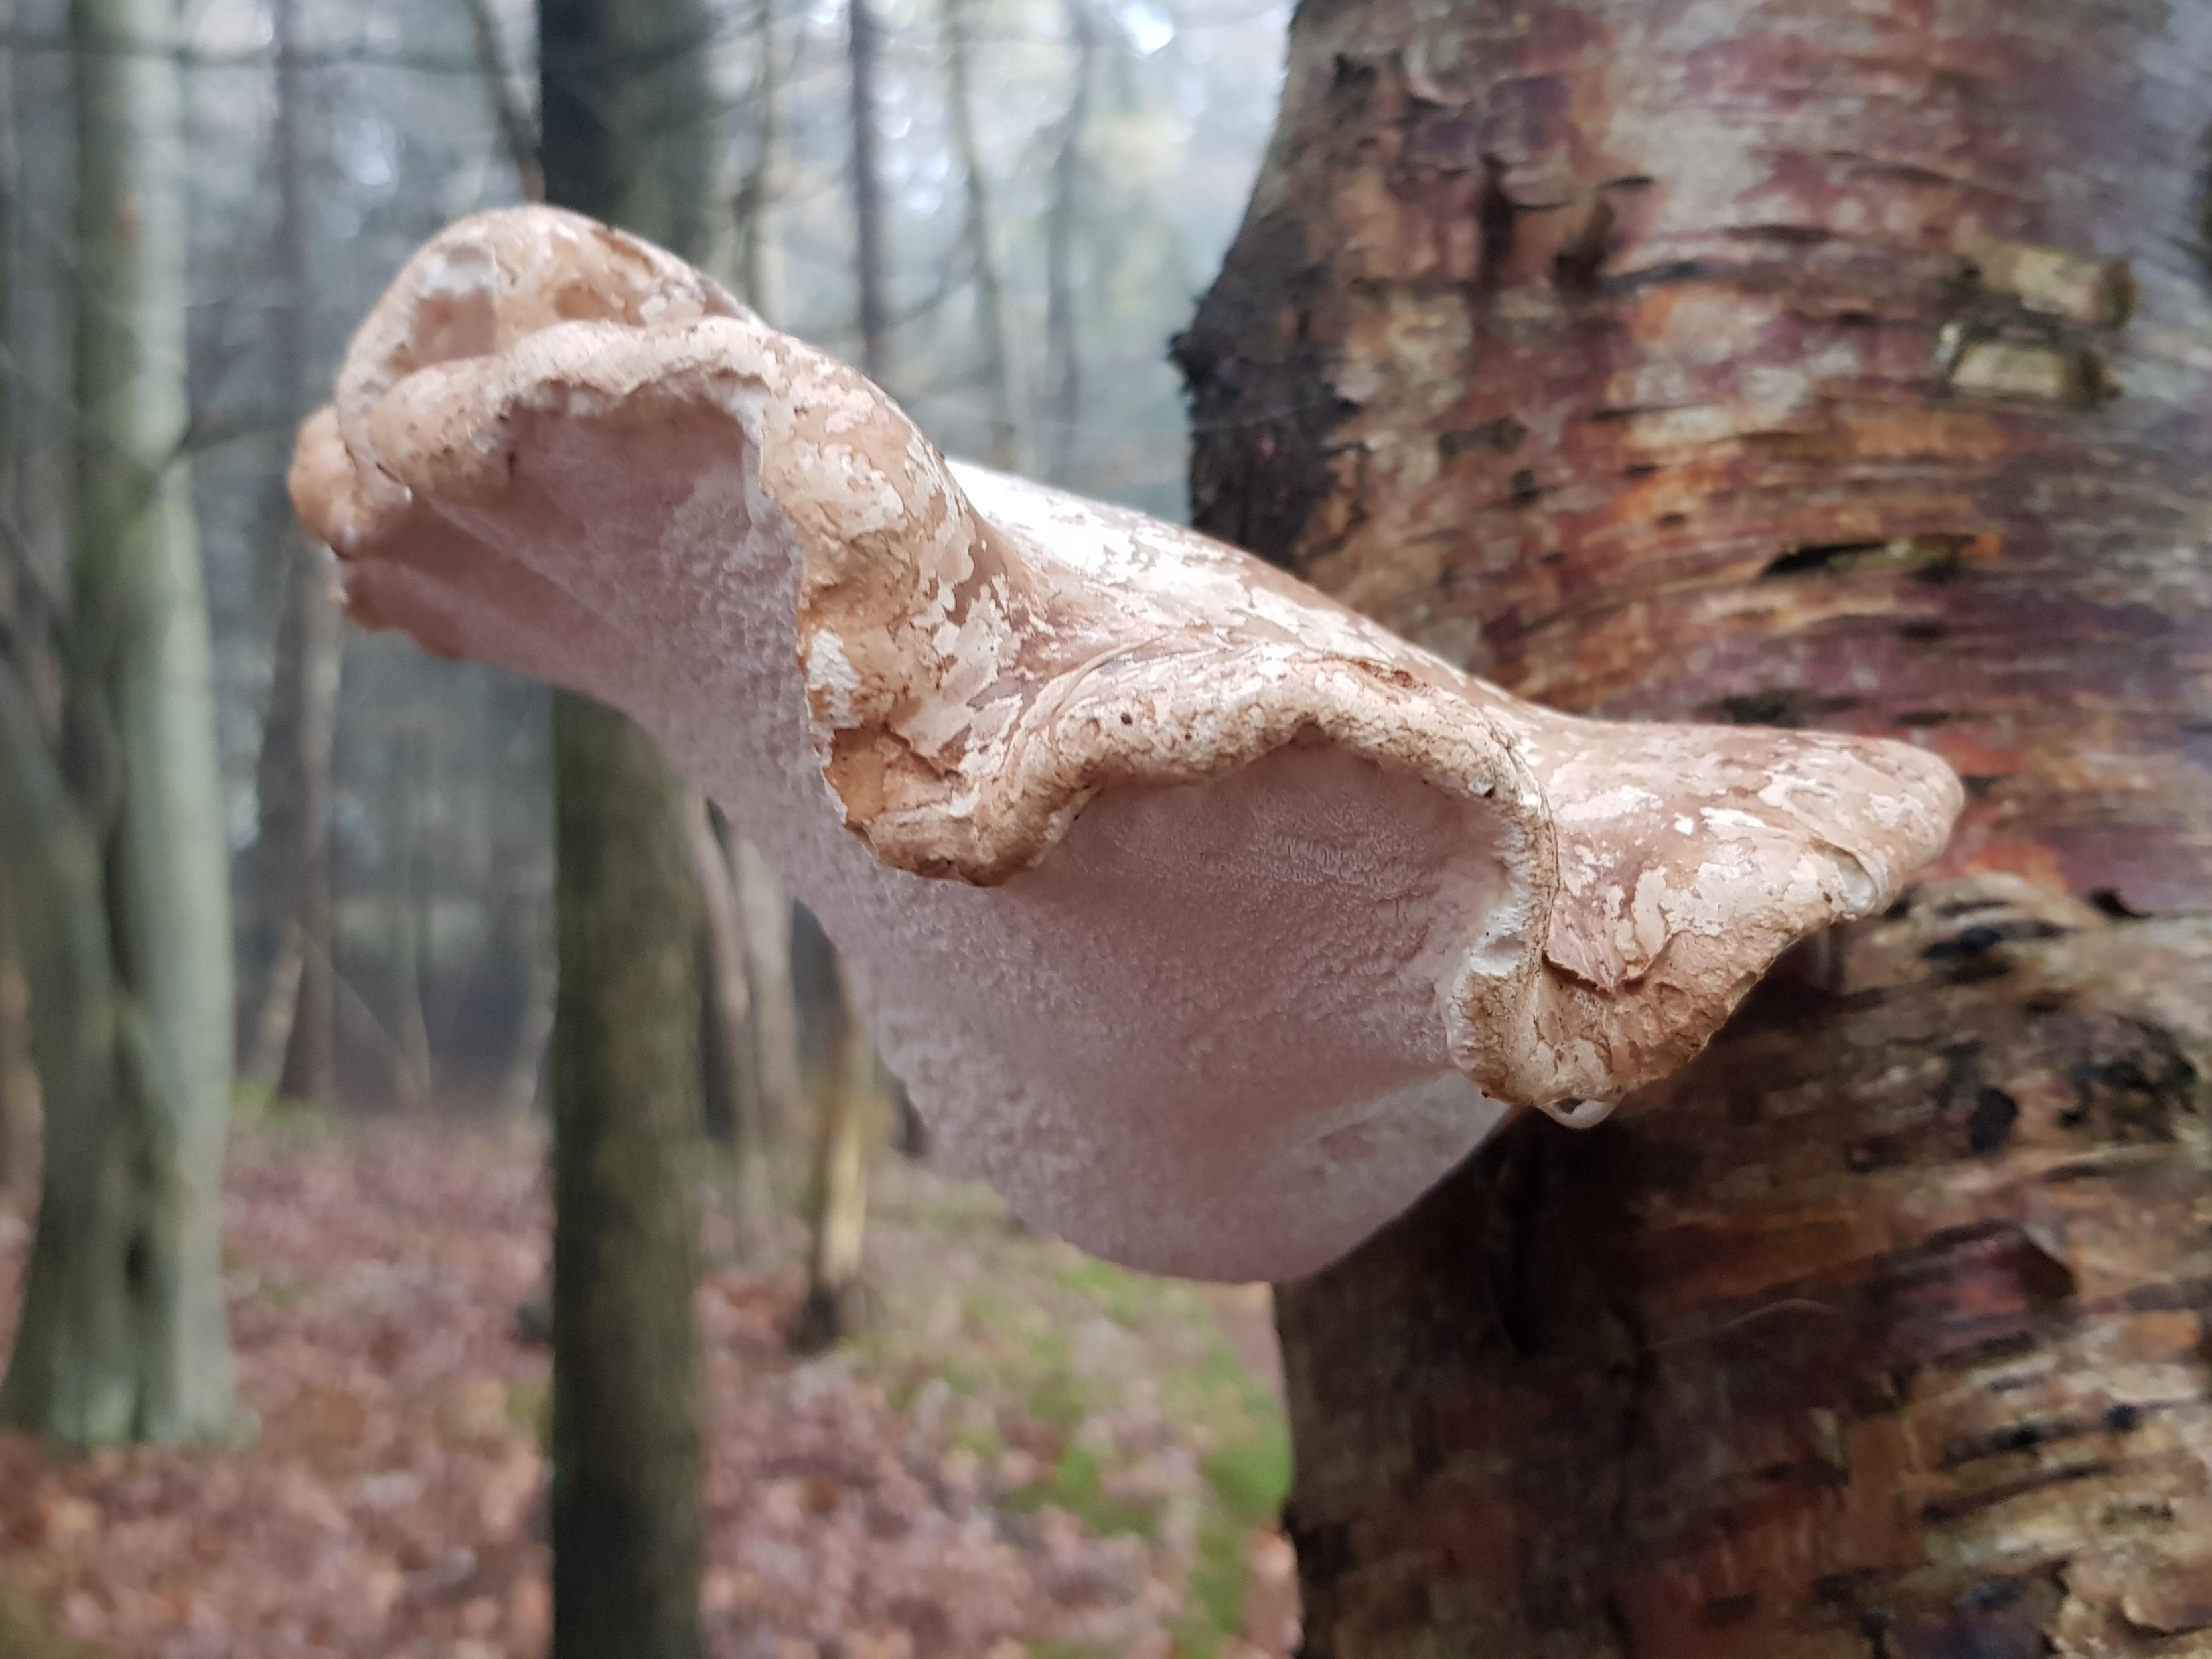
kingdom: Fungi
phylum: Basidiomycota
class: Agaricomycetes
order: Polyporales
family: Fomitopsidaceae
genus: Fomitopsis
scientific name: Fomitopsis betulina
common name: birkeporesvamp
